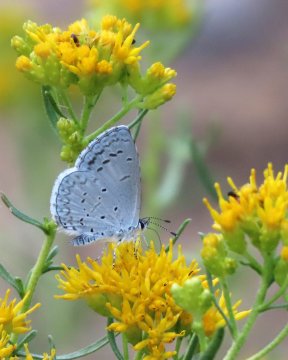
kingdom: Animalia
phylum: Arthropoda
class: Insecta
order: Lepidoptera
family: Lycaenidae
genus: Celastrina
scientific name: Celastrina
